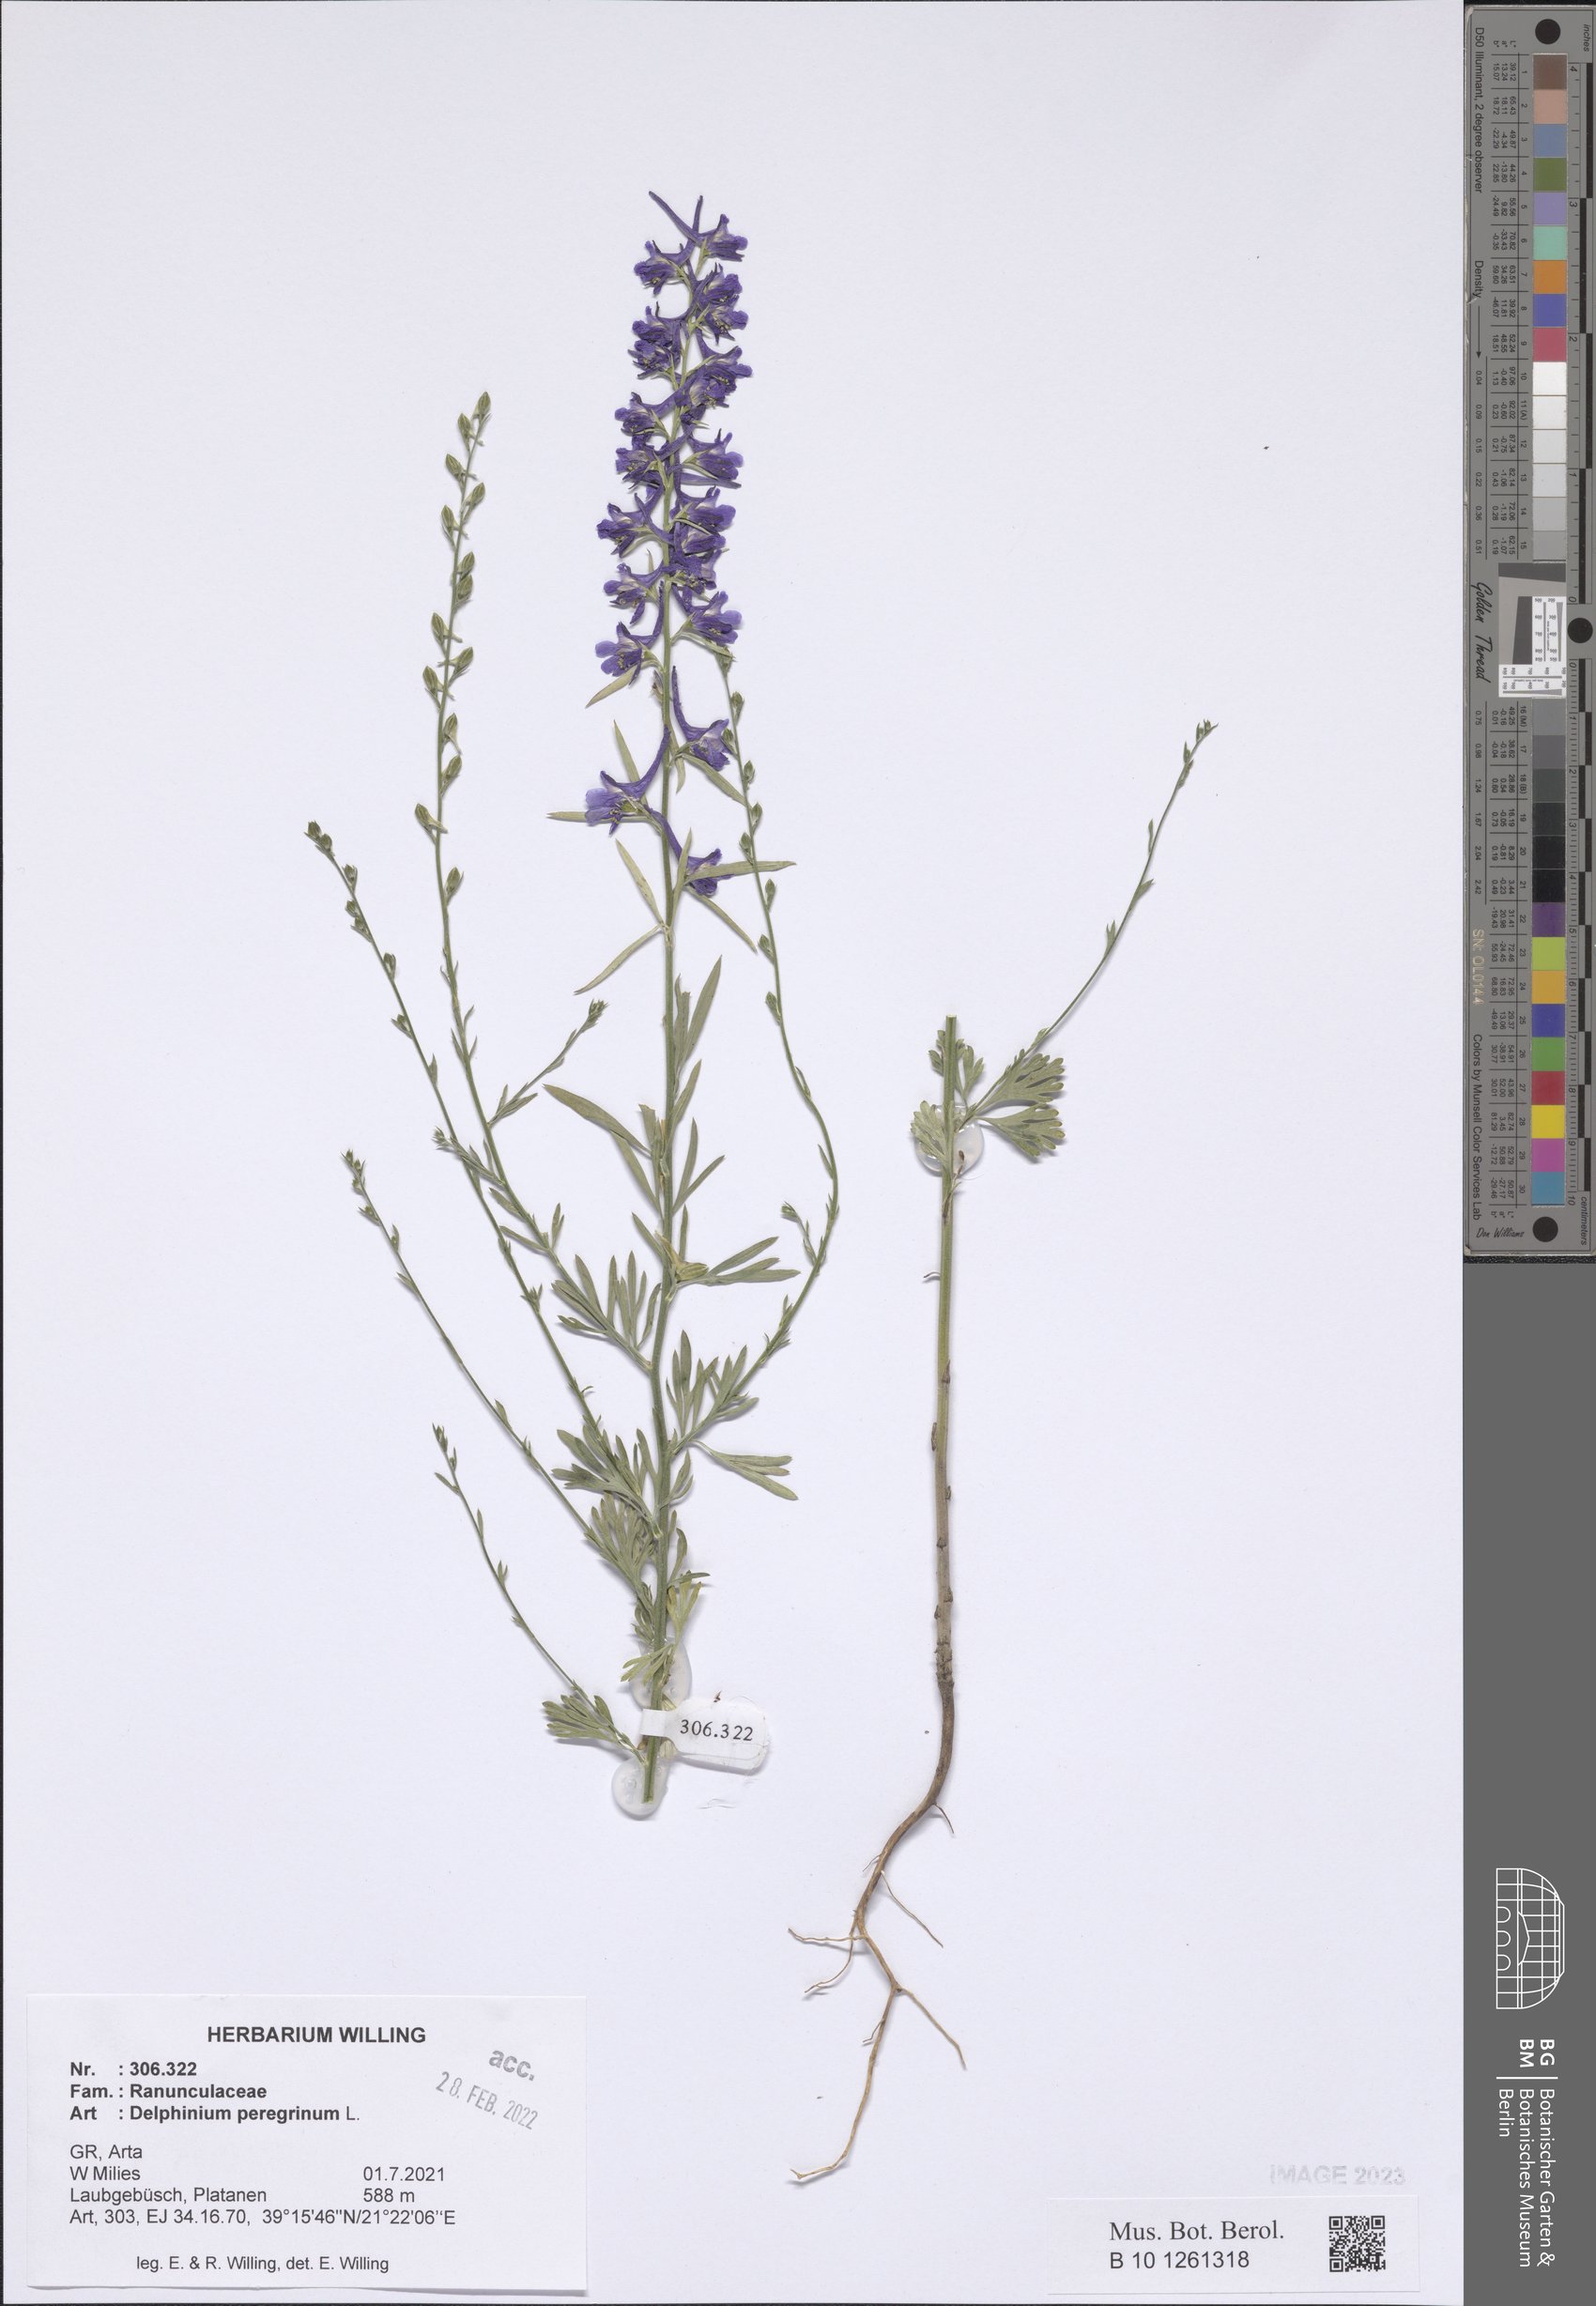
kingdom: Plantae
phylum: Tracheophyta
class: Magnoliopsida
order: Ranunculales
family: Ranunculaceae
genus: Delphinium
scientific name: Delphinium peregrinum
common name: Violet larkspur
